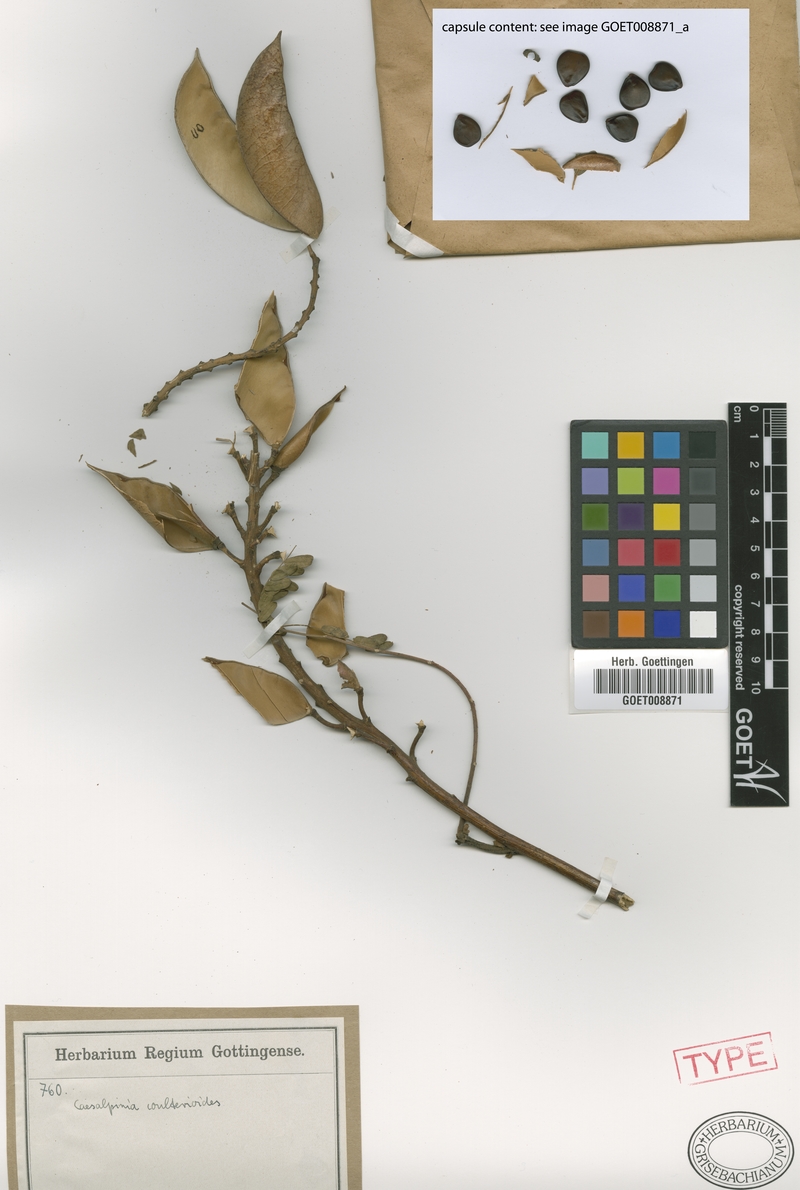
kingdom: Plantae
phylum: Tracheophyta
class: Magnoliopsida
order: Fabales
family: Fabaceae
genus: Erythrostemon
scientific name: Erythrostemon coulterioides
